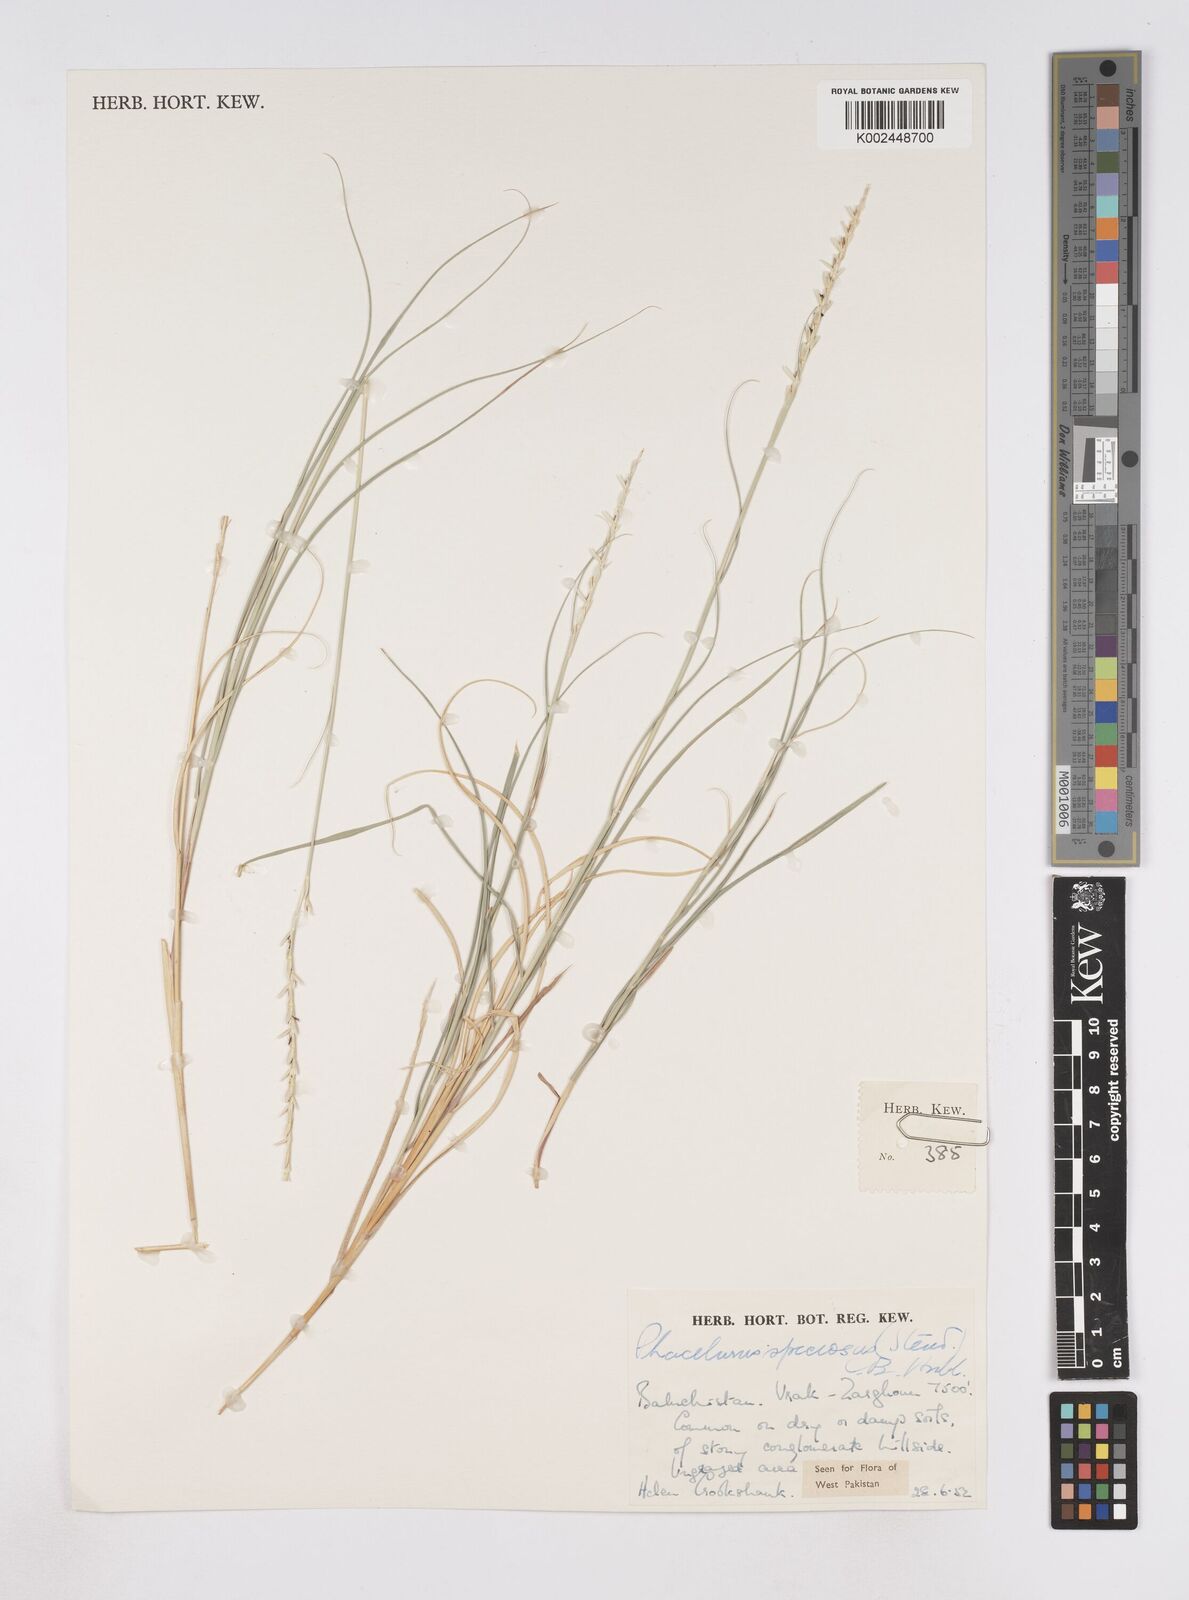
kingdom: Plantae
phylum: Tracheophyta
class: Liliopsida
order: Poales
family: Poaceae
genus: Phacelurus
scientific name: Phacelurus speciosus
